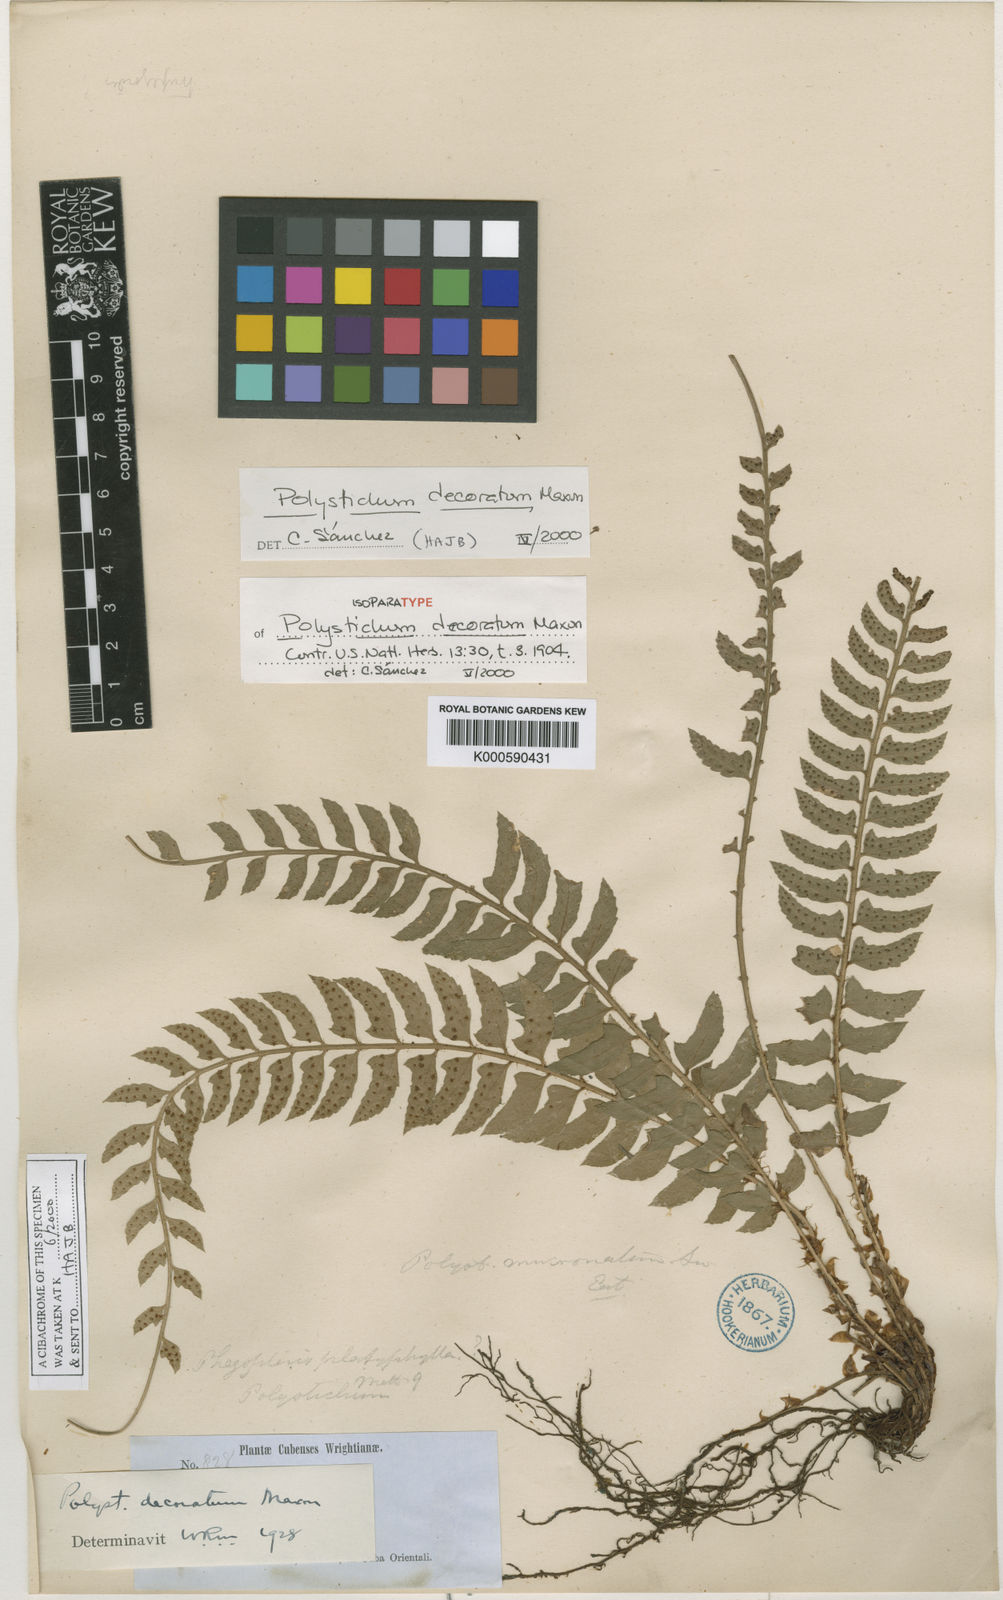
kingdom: Plantae
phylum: Tracheophyta
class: Polypodiopsida
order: Polypodiales
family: Dryopteridaceae
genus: Polystichum
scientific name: Polystichum decoratum
